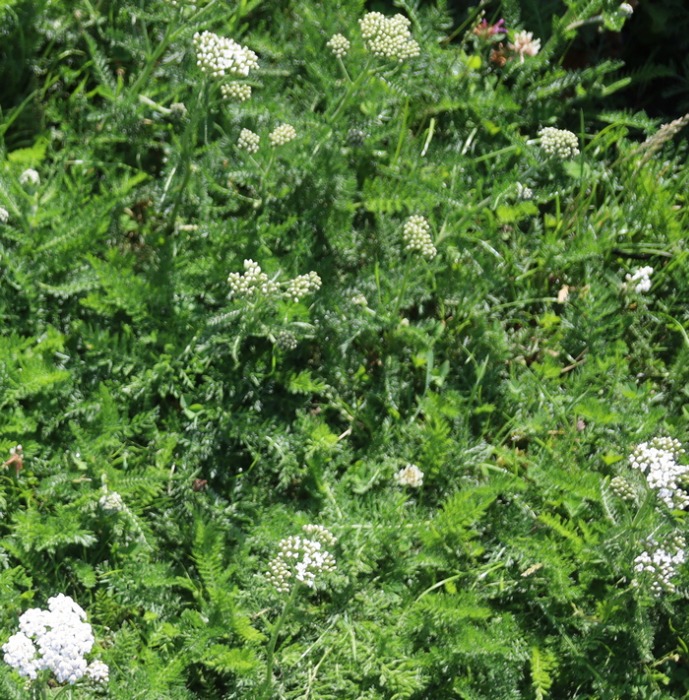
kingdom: Plantae
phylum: Tracheophyta
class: Magnoliopsida
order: Asterales
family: Asteraceae
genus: Achillea
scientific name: Achillea millefolium
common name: Almindelig røllike
